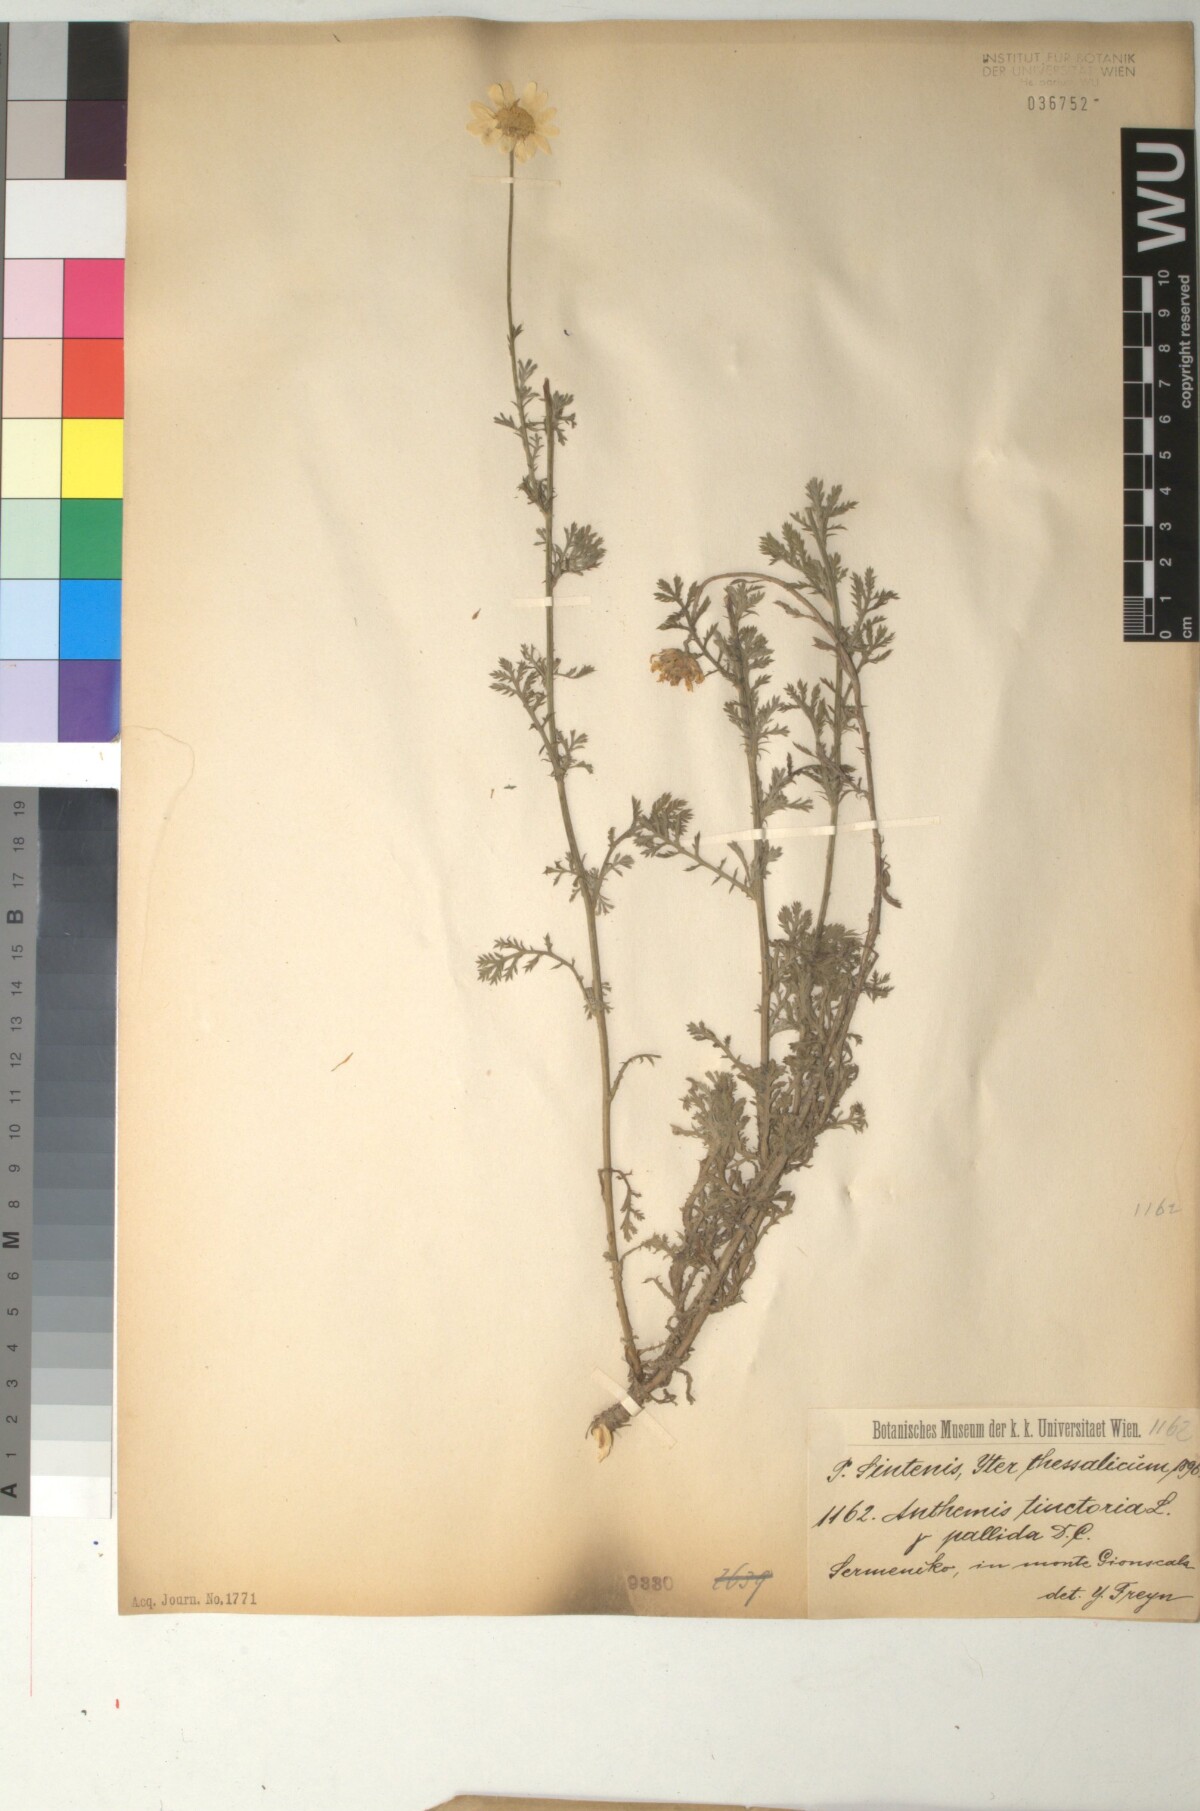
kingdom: Plantae
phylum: Tracheophyta
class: Magnoliopsida
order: Asterales
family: Asteraceae
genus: Cota
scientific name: Cota tinctoria
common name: Golden chamomile
